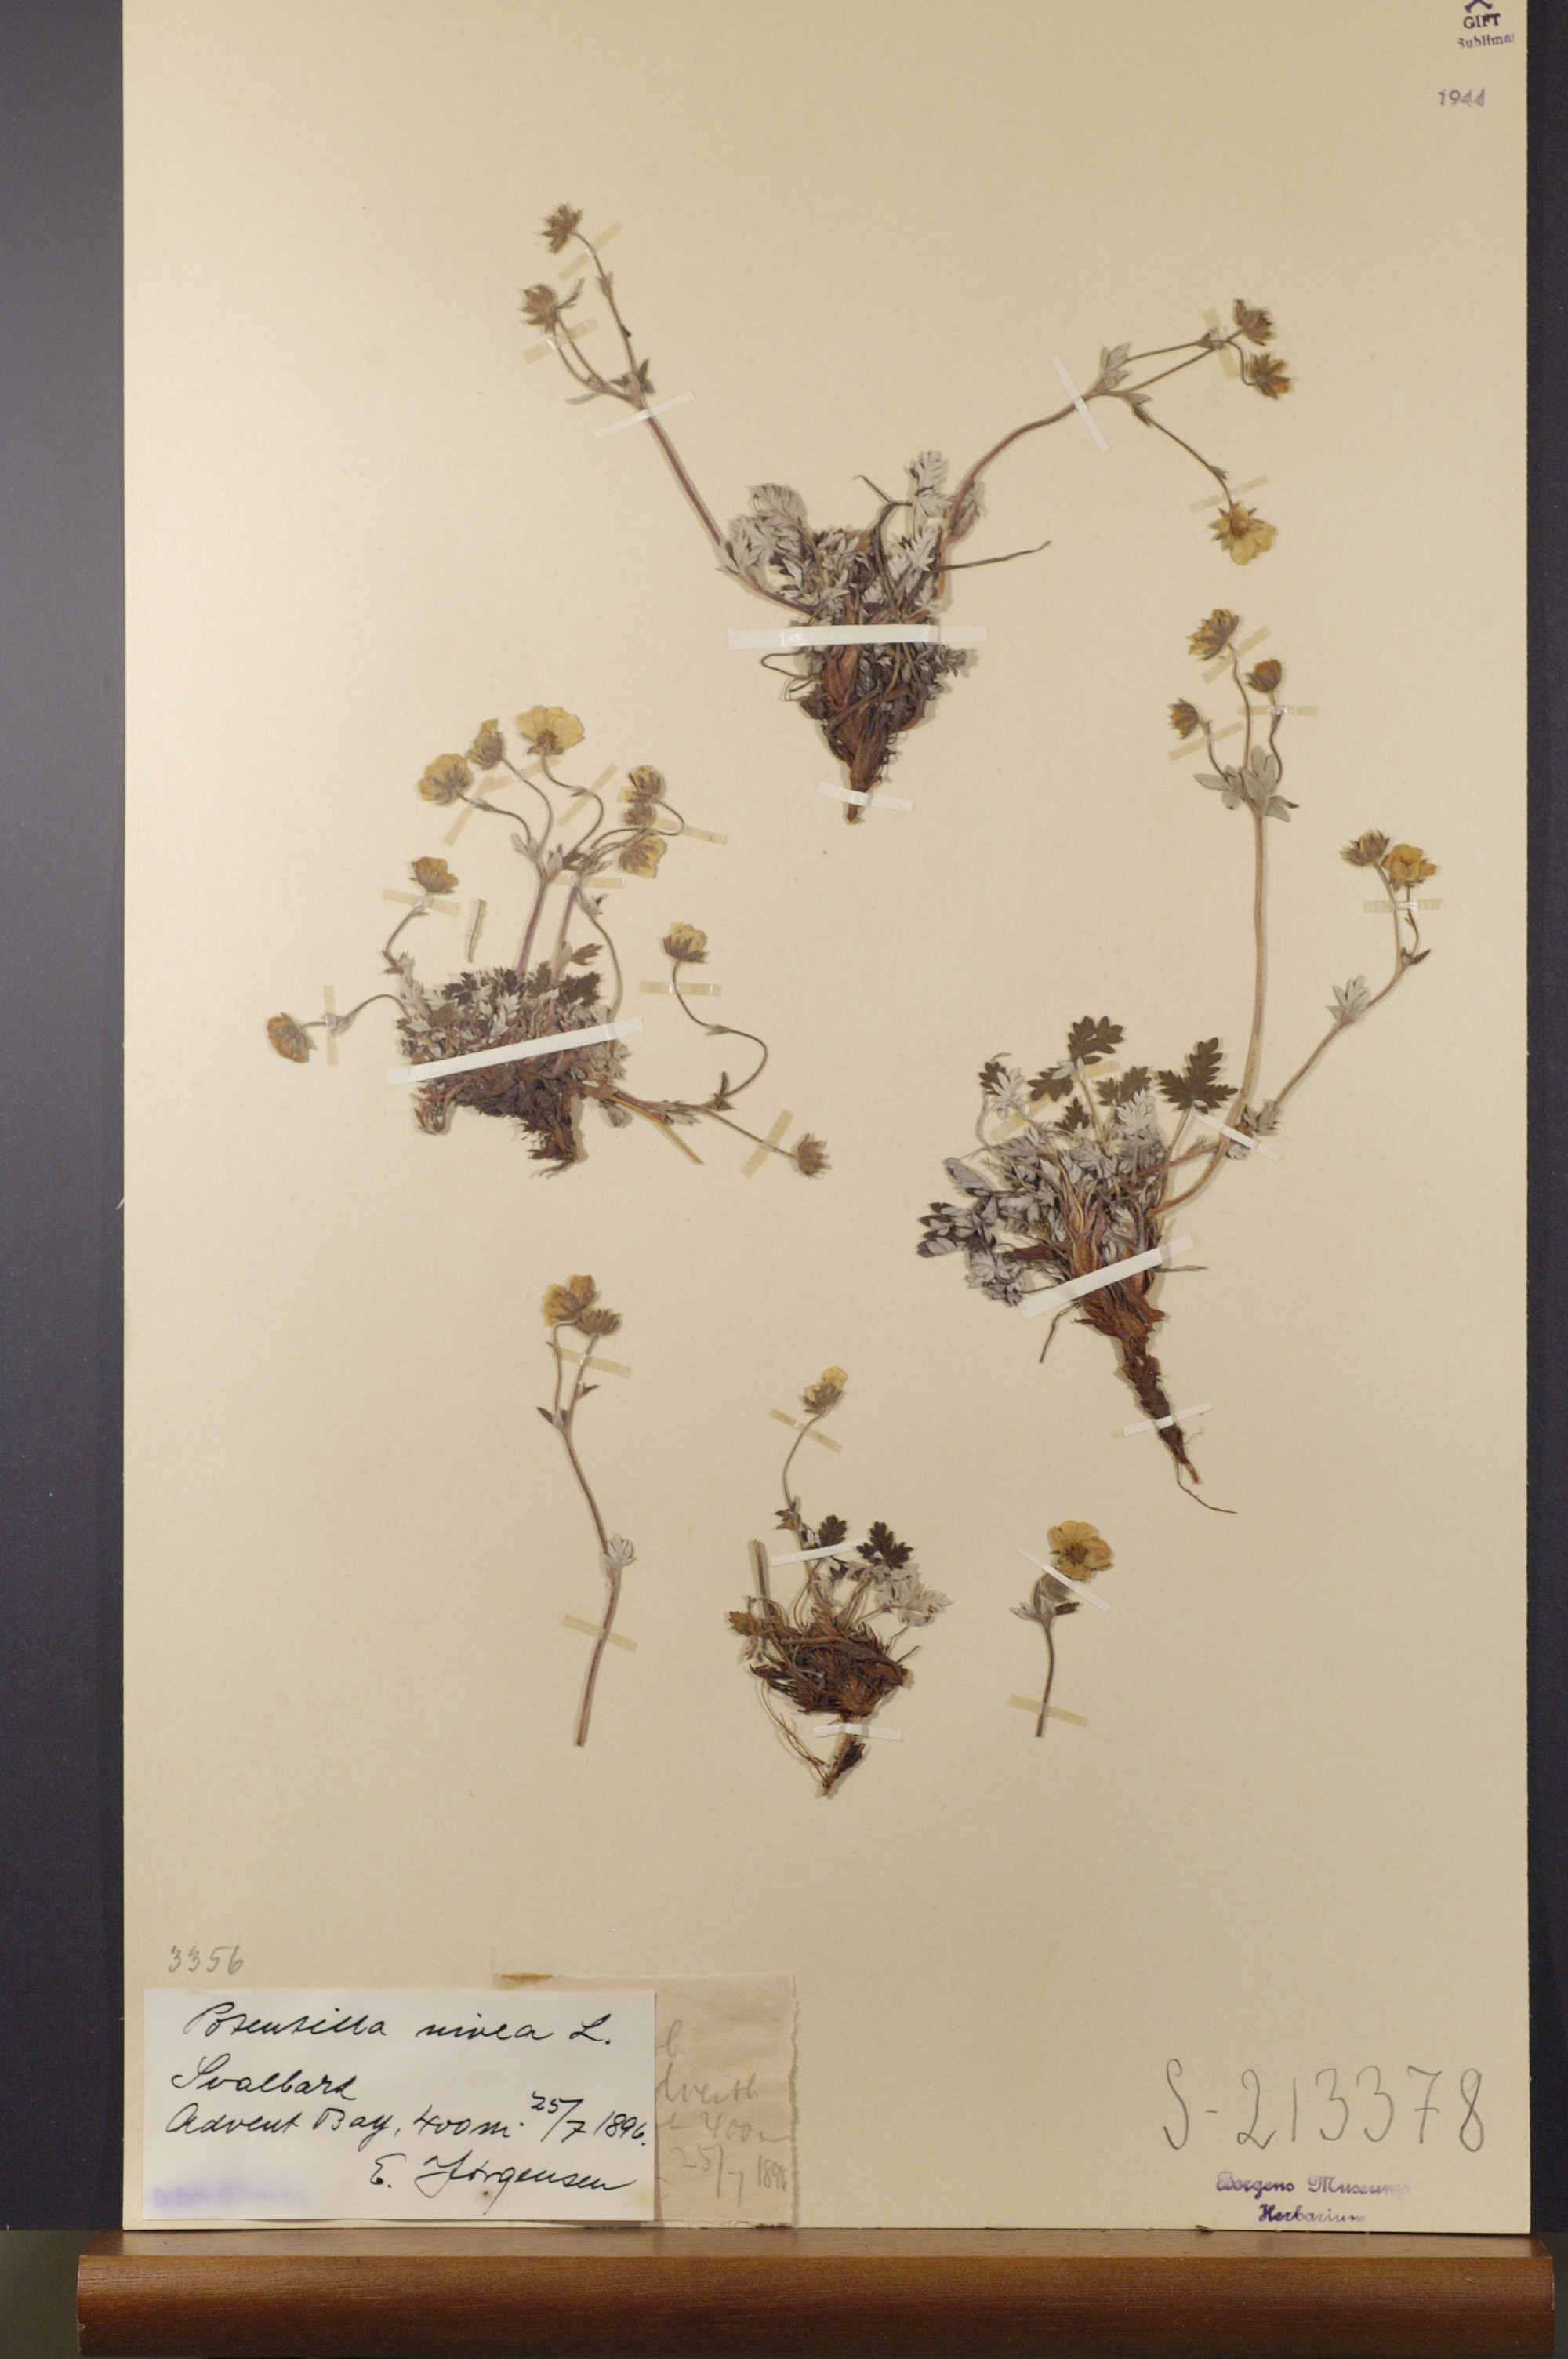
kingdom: Plantae
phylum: Tracheophyta
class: Magnoliopsida
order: Rosales
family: Rosaceae
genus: Potentilla
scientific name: Potentilla arenosa
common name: Bluff cinquefoil
